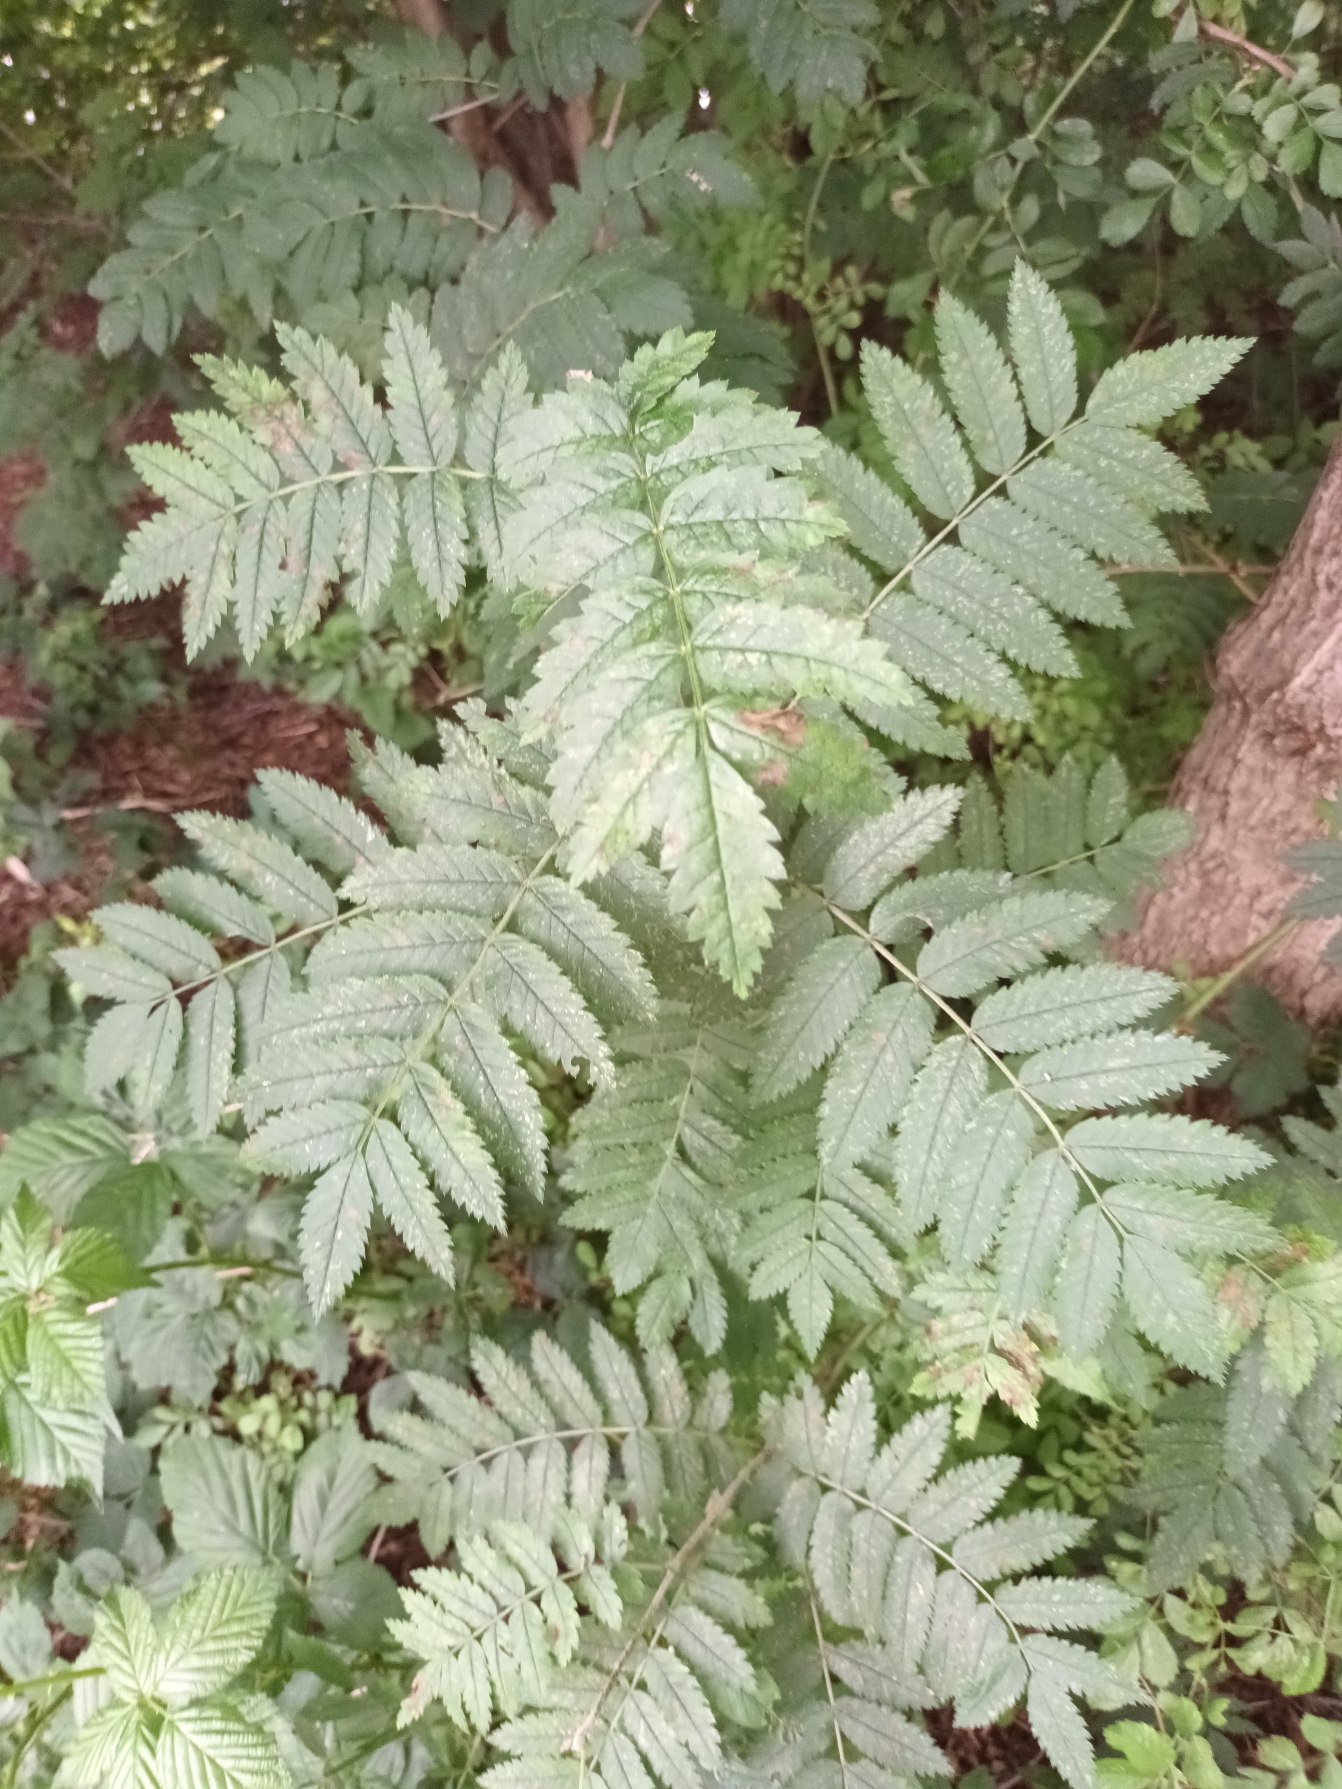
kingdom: Plantae
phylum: Tracheophyta
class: Magnoliopsida
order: Rosales
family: Rosaceae
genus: Sorbus
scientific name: Sorbus aucuparia
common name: Almindelig røn
